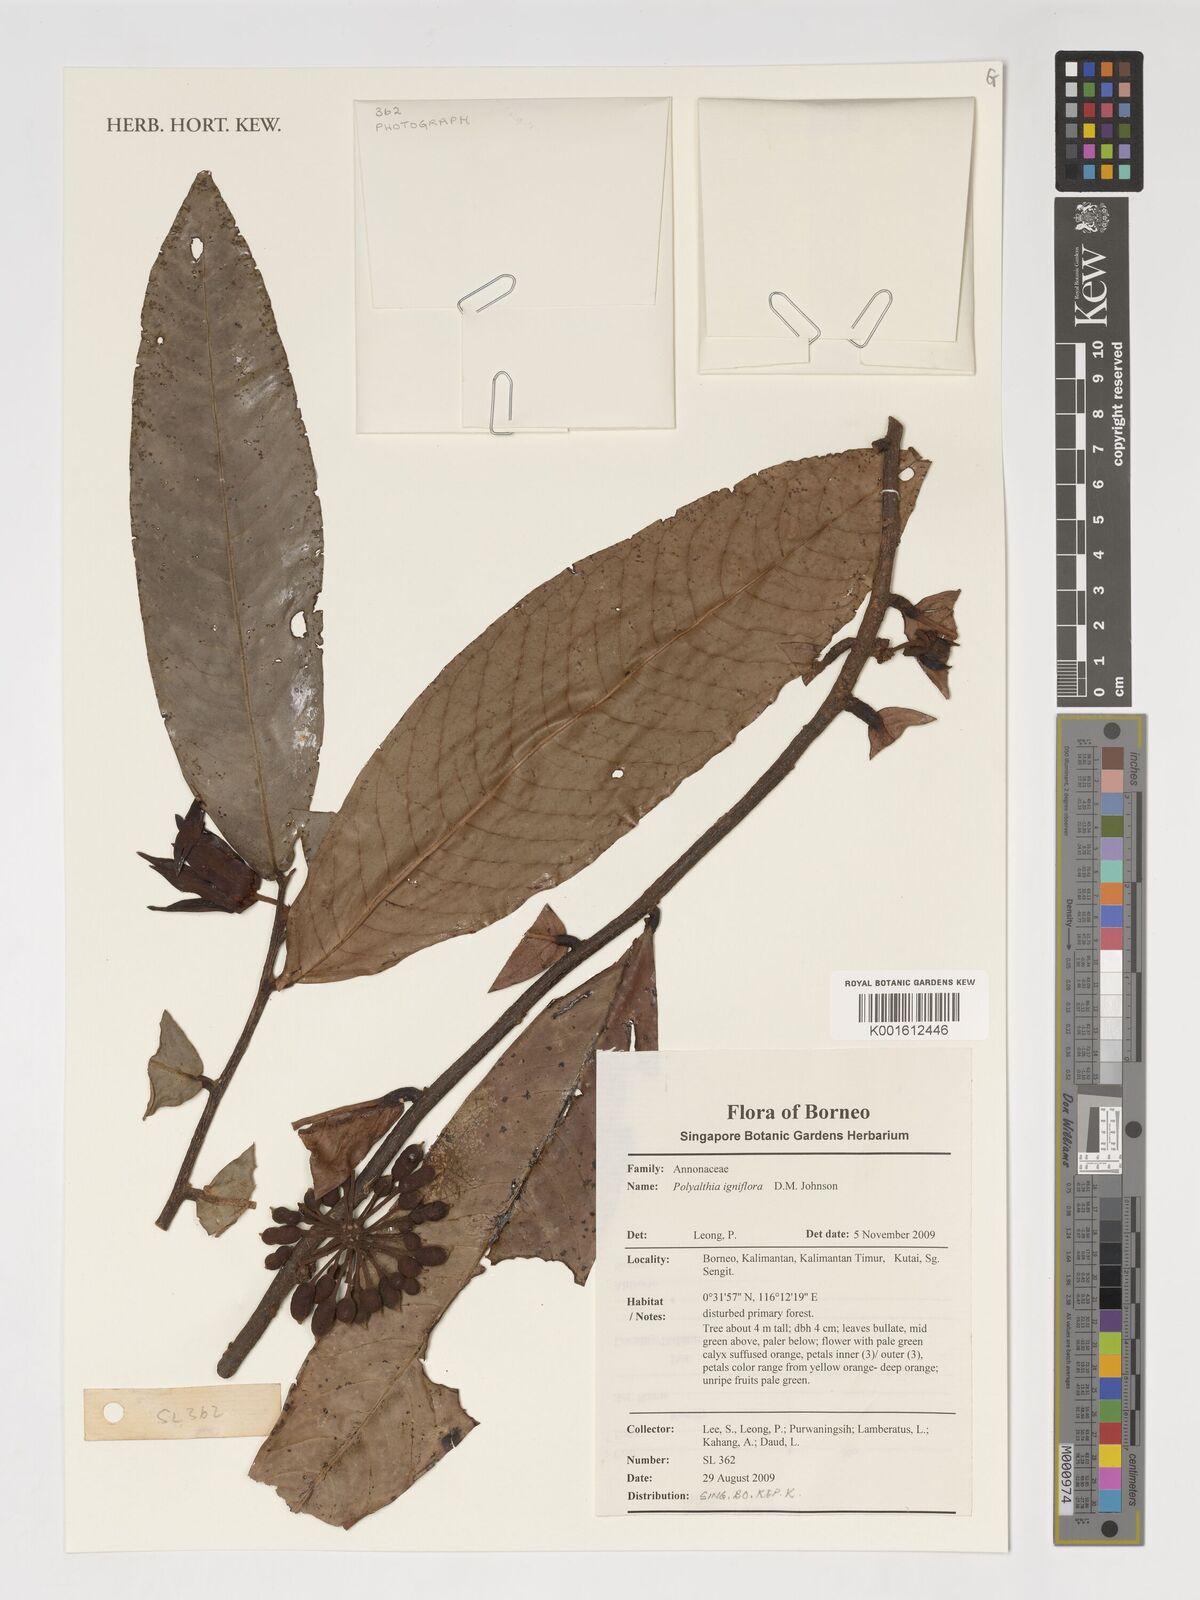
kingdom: Plantae
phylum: Tracheophyta
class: Magnoliopsida
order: Magnoliales
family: Annonaceae
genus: Polyalthia
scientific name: Polyalthia igniflora
